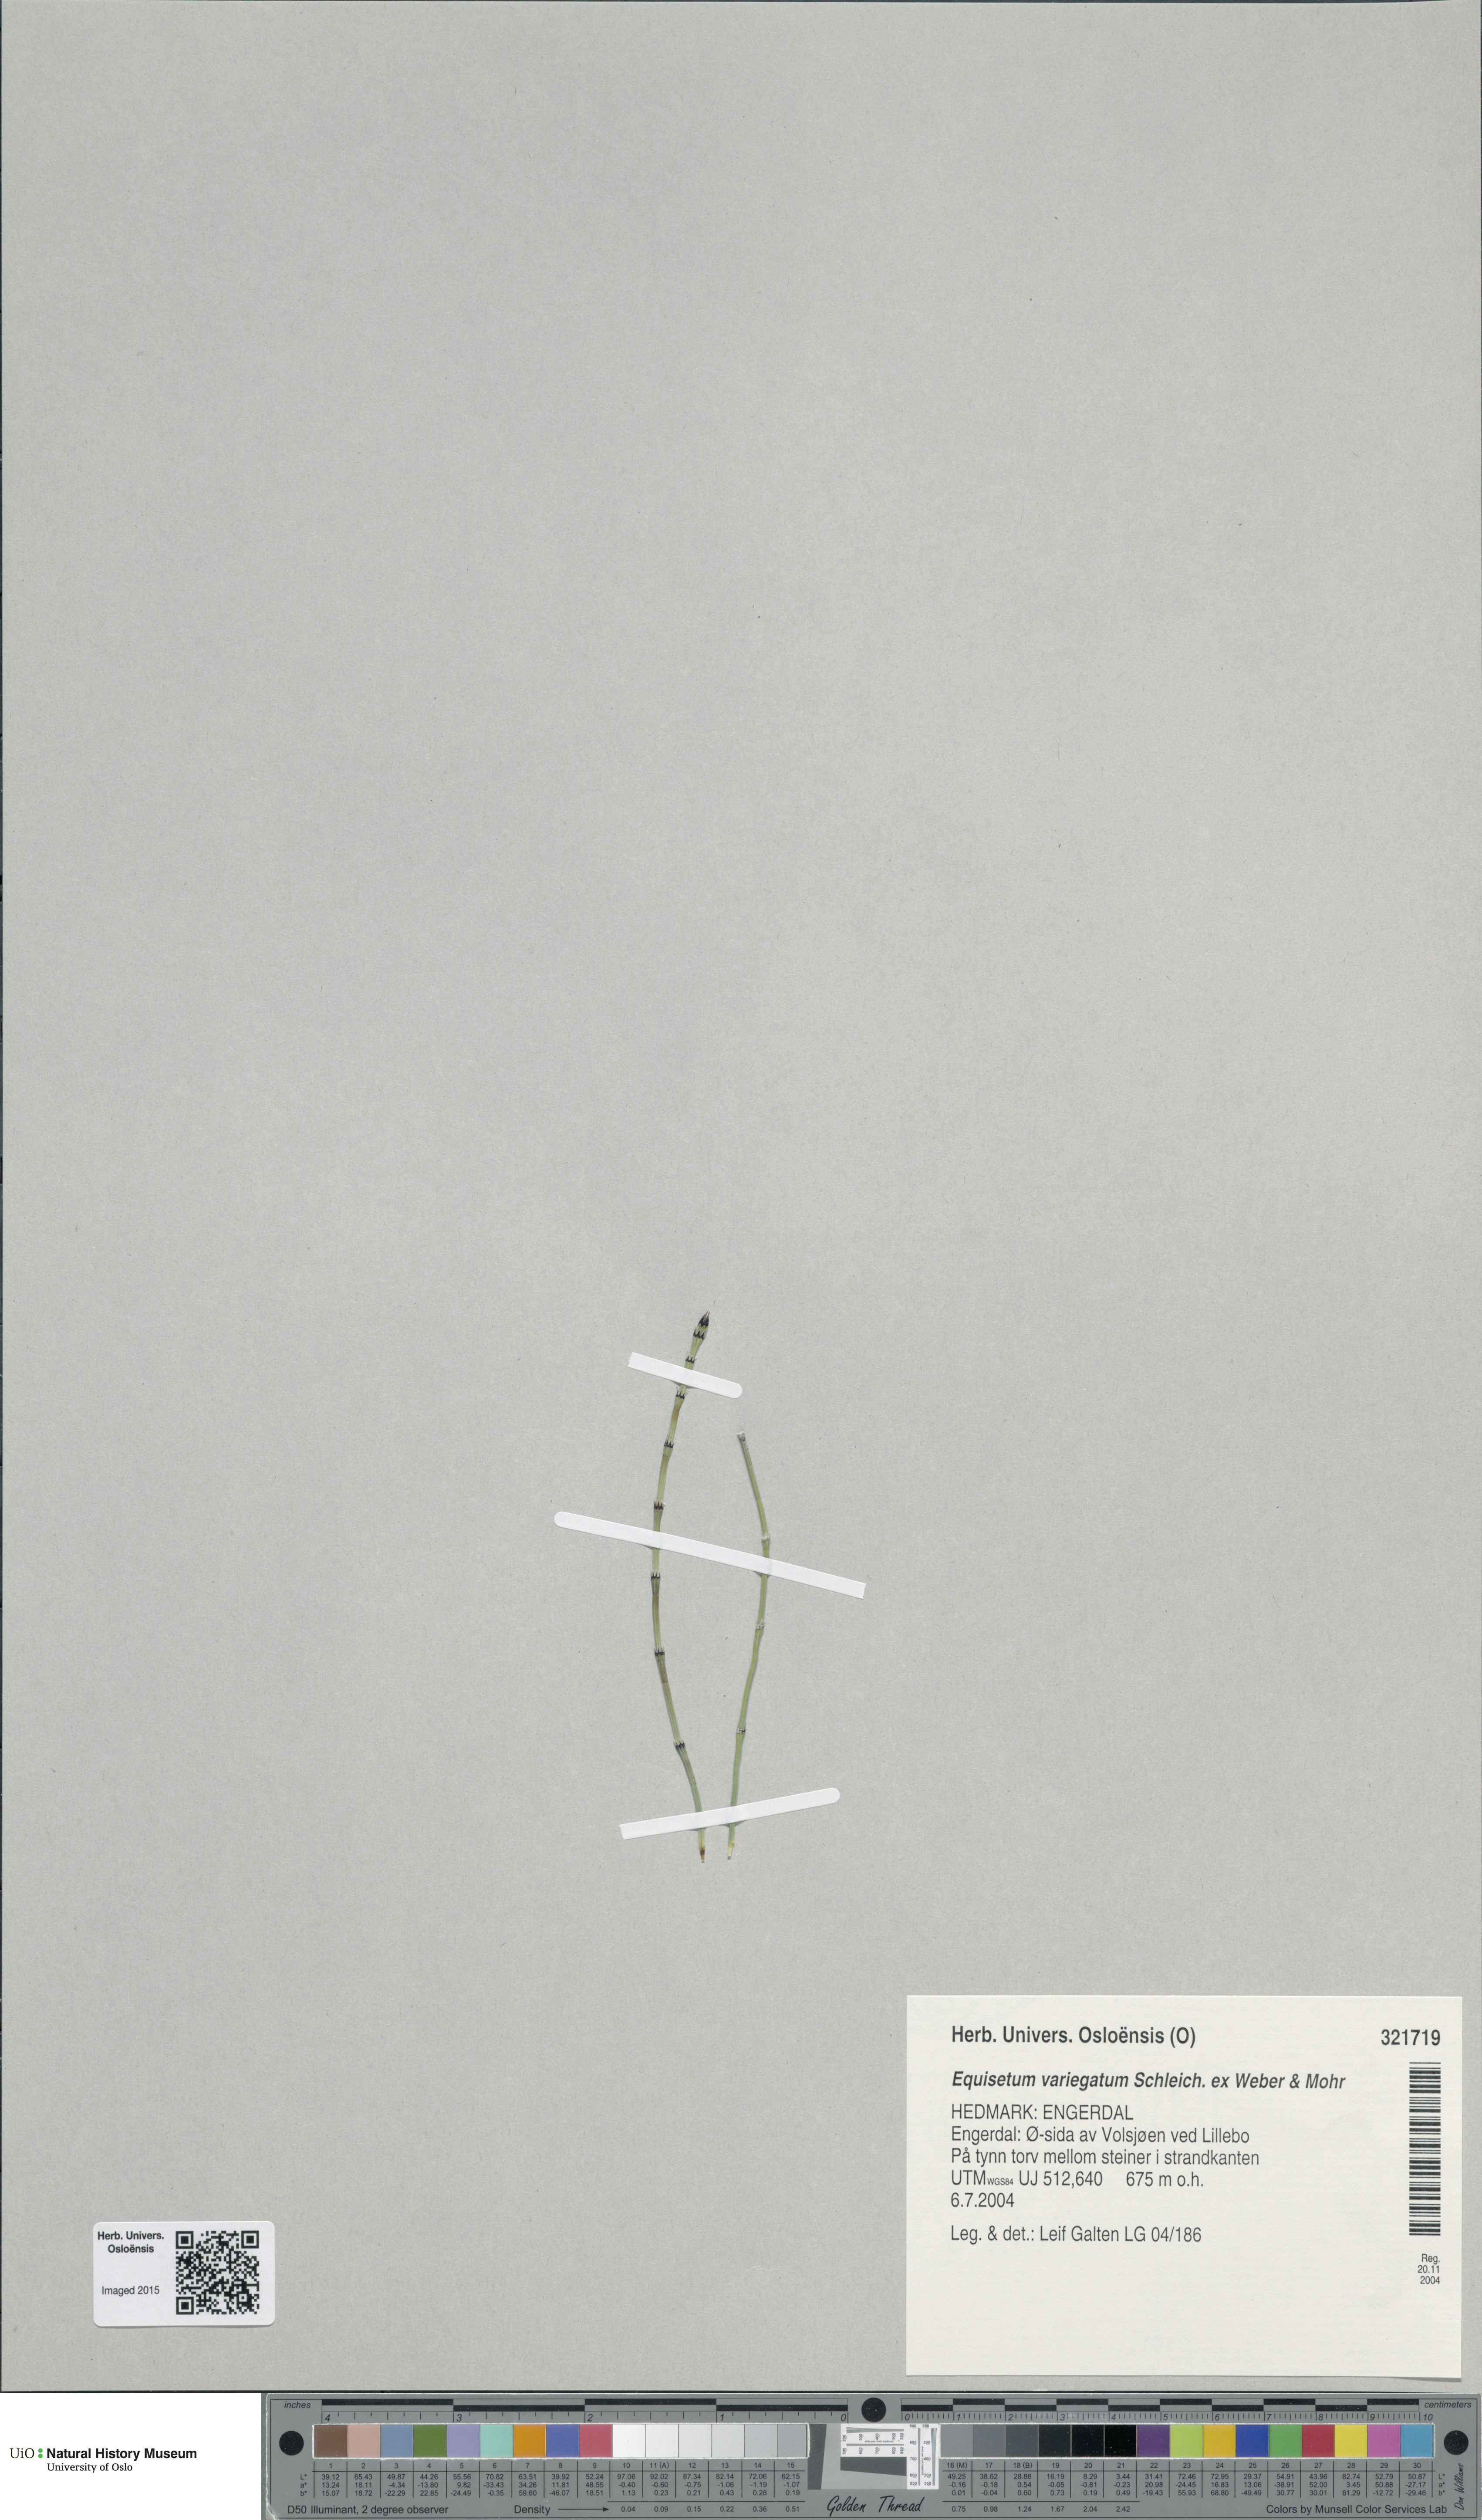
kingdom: Plantae
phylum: Tracheophyta
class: Polypodiopsida
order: Equisetales
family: Equisetaceae
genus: Equisetum
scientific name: Equisetum variegatum
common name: Variegated horsetail
